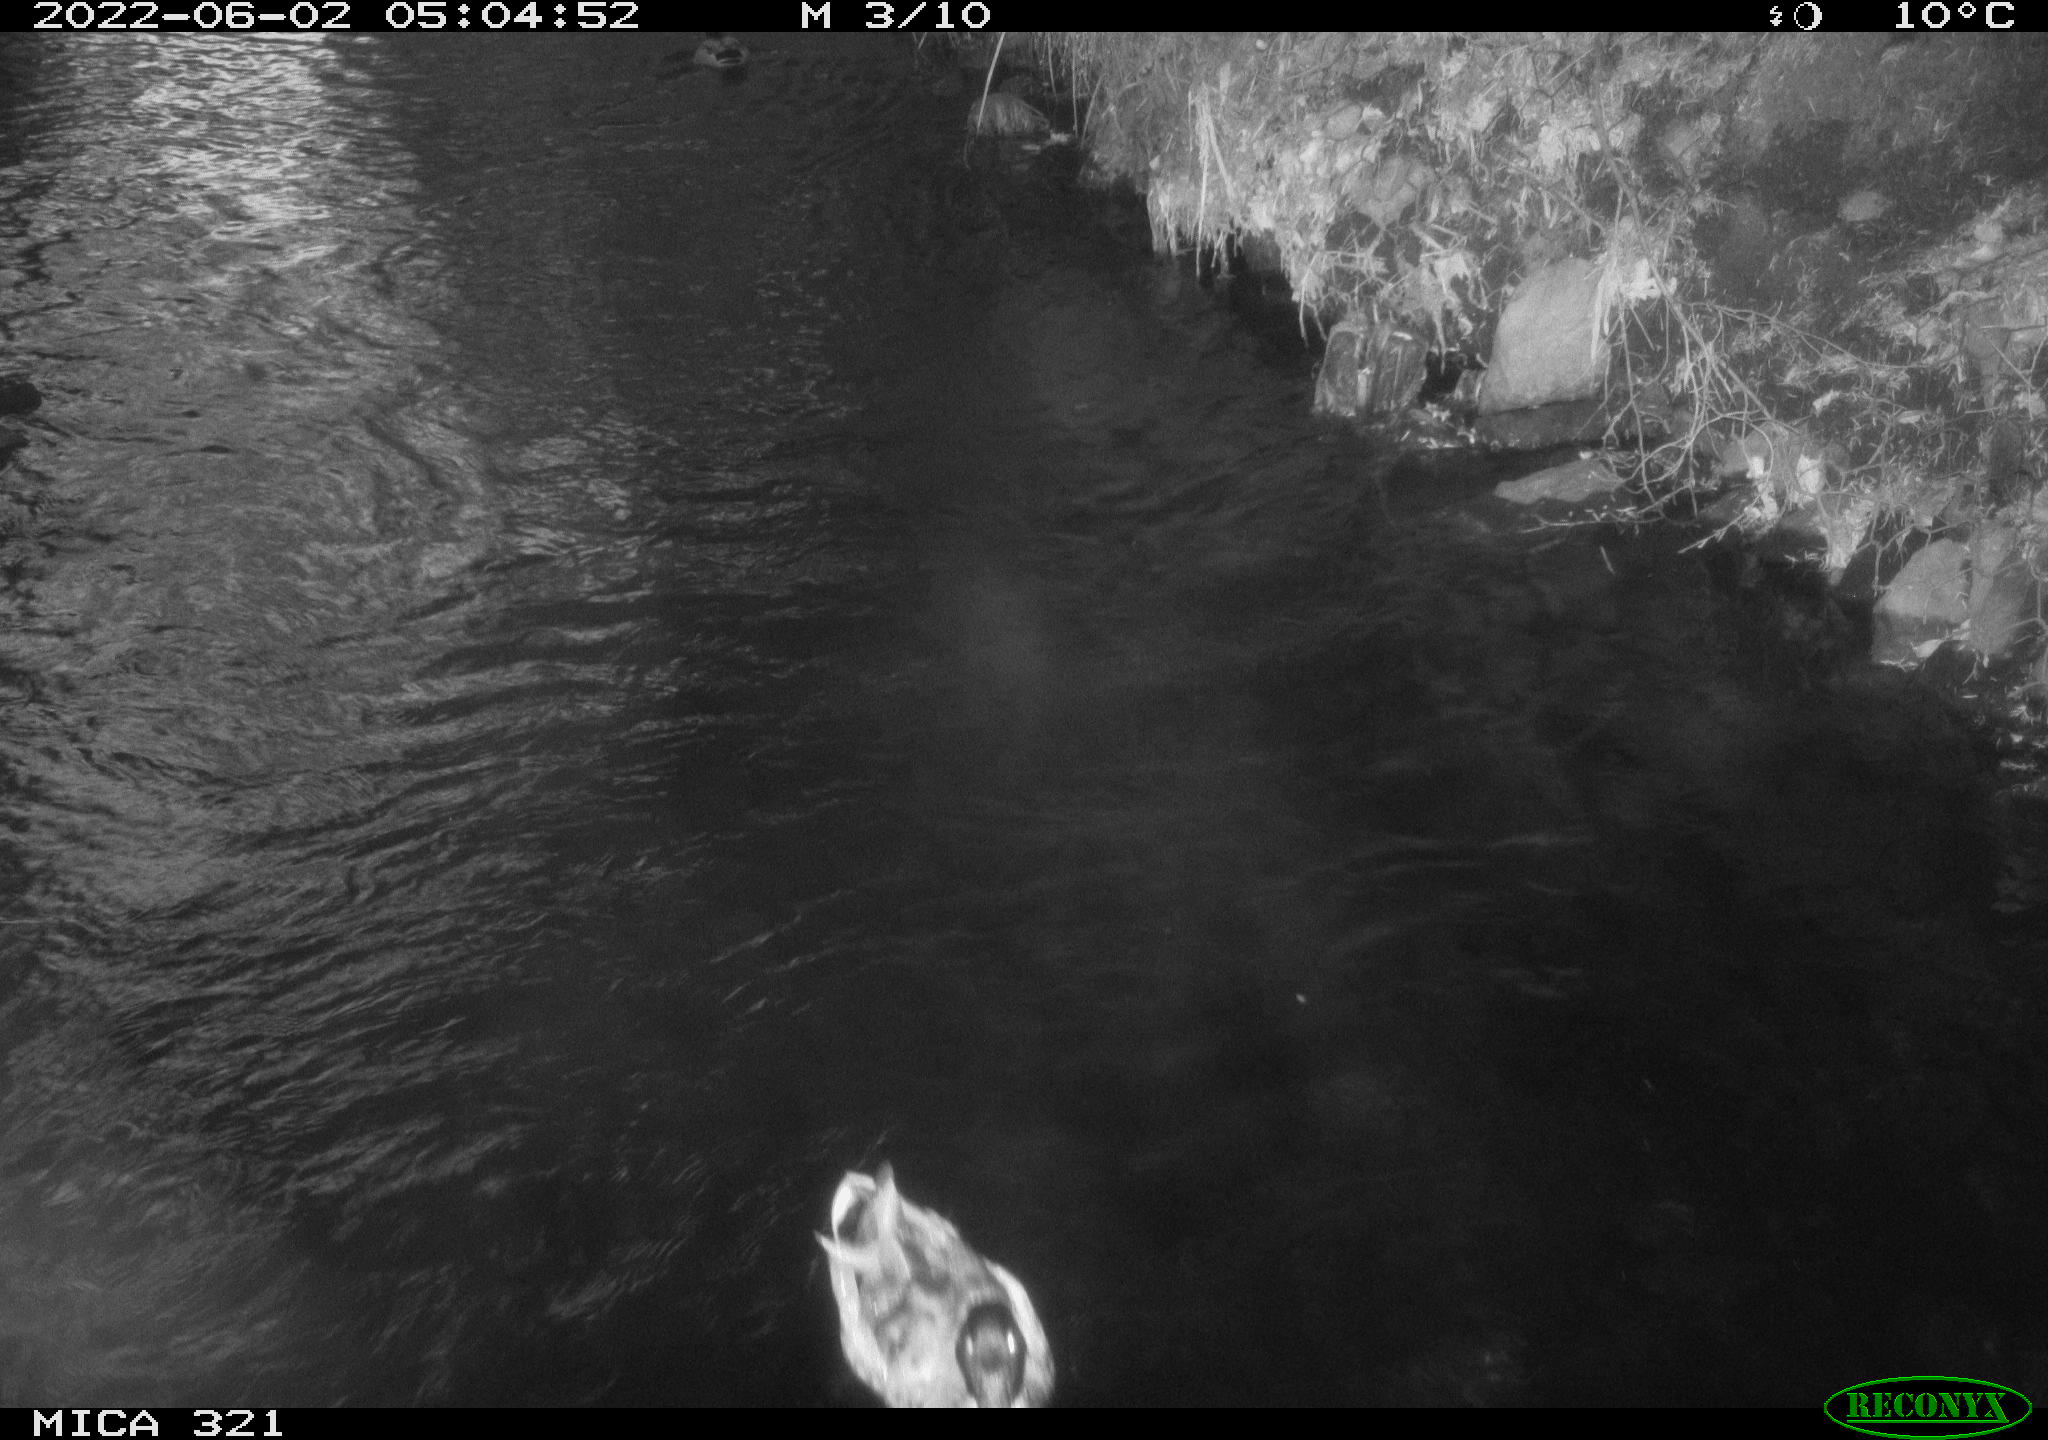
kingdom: Animalia
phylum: Chordata
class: Aves
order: Anseriformes
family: Anatidae
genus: Anas
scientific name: Anas platyrhynchos
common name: Mallard
